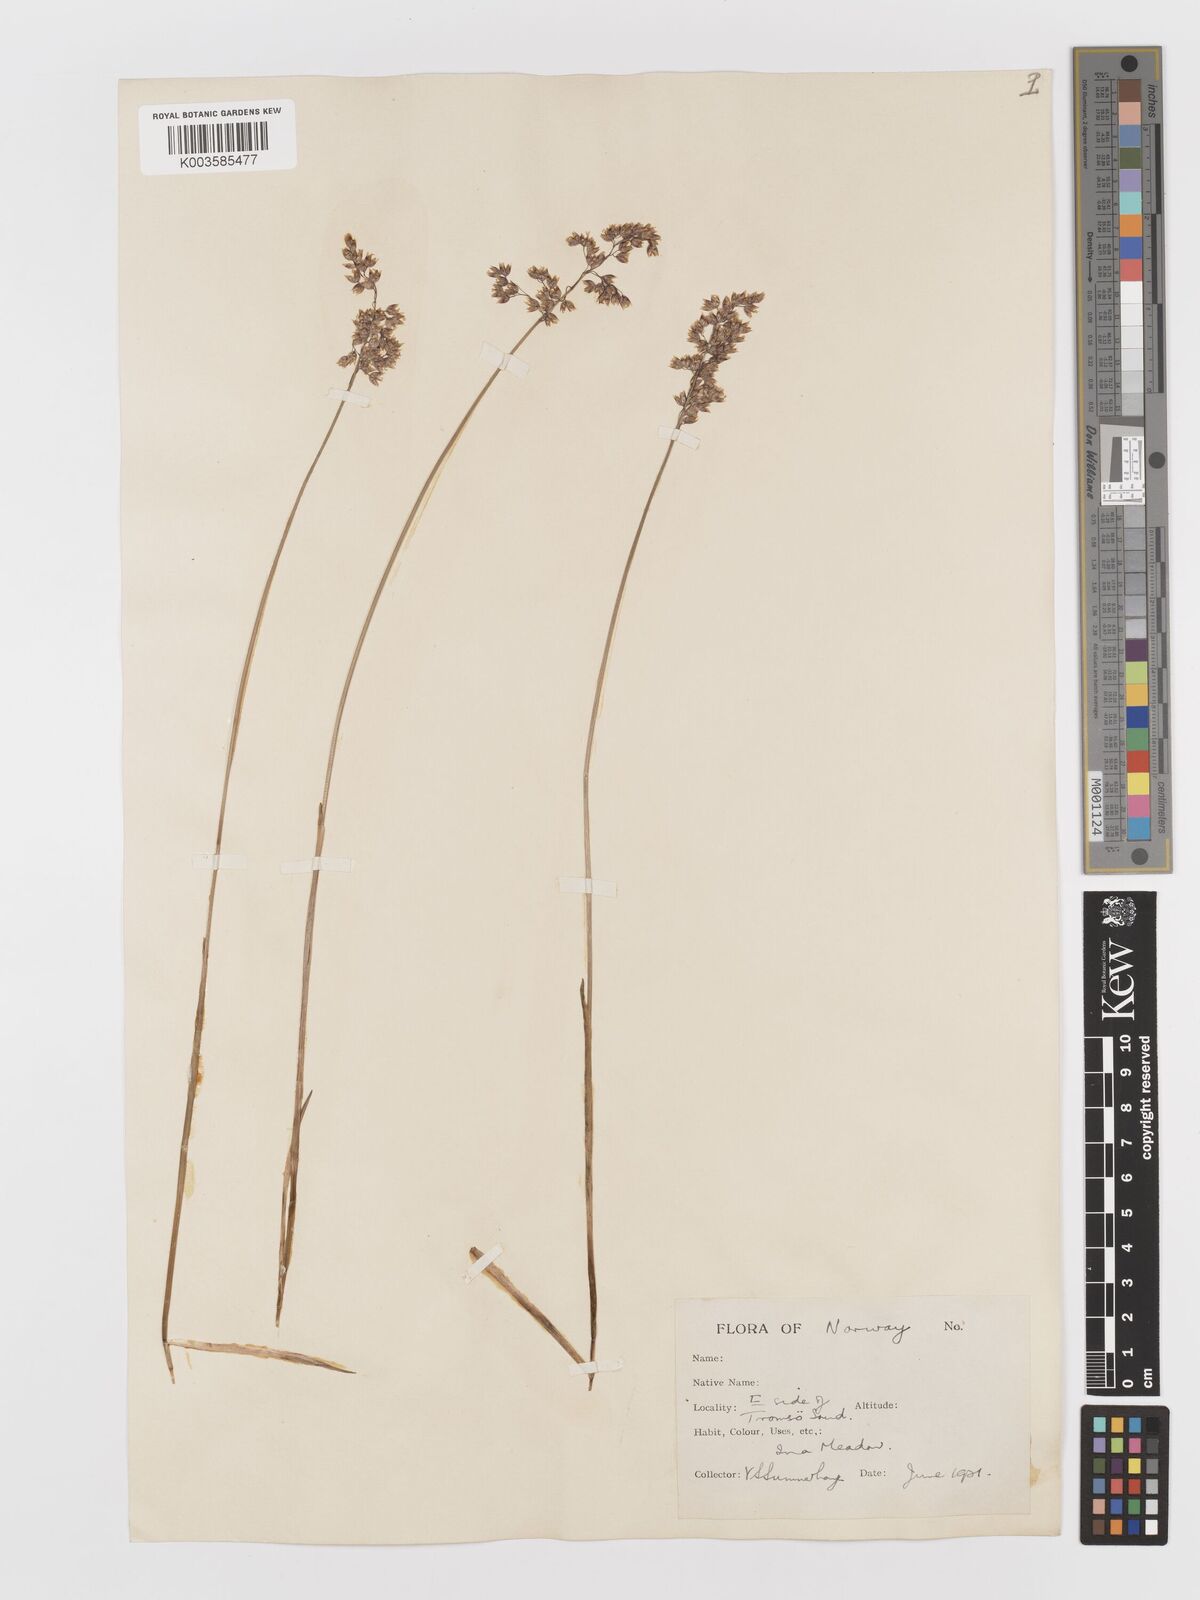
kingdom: Plantae
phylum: Tracheophyta
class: Liliopsida
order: Poales
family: Poaceae
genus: Anthoxanthum
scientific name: Anthoxanthum nitens
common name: Holy grass
